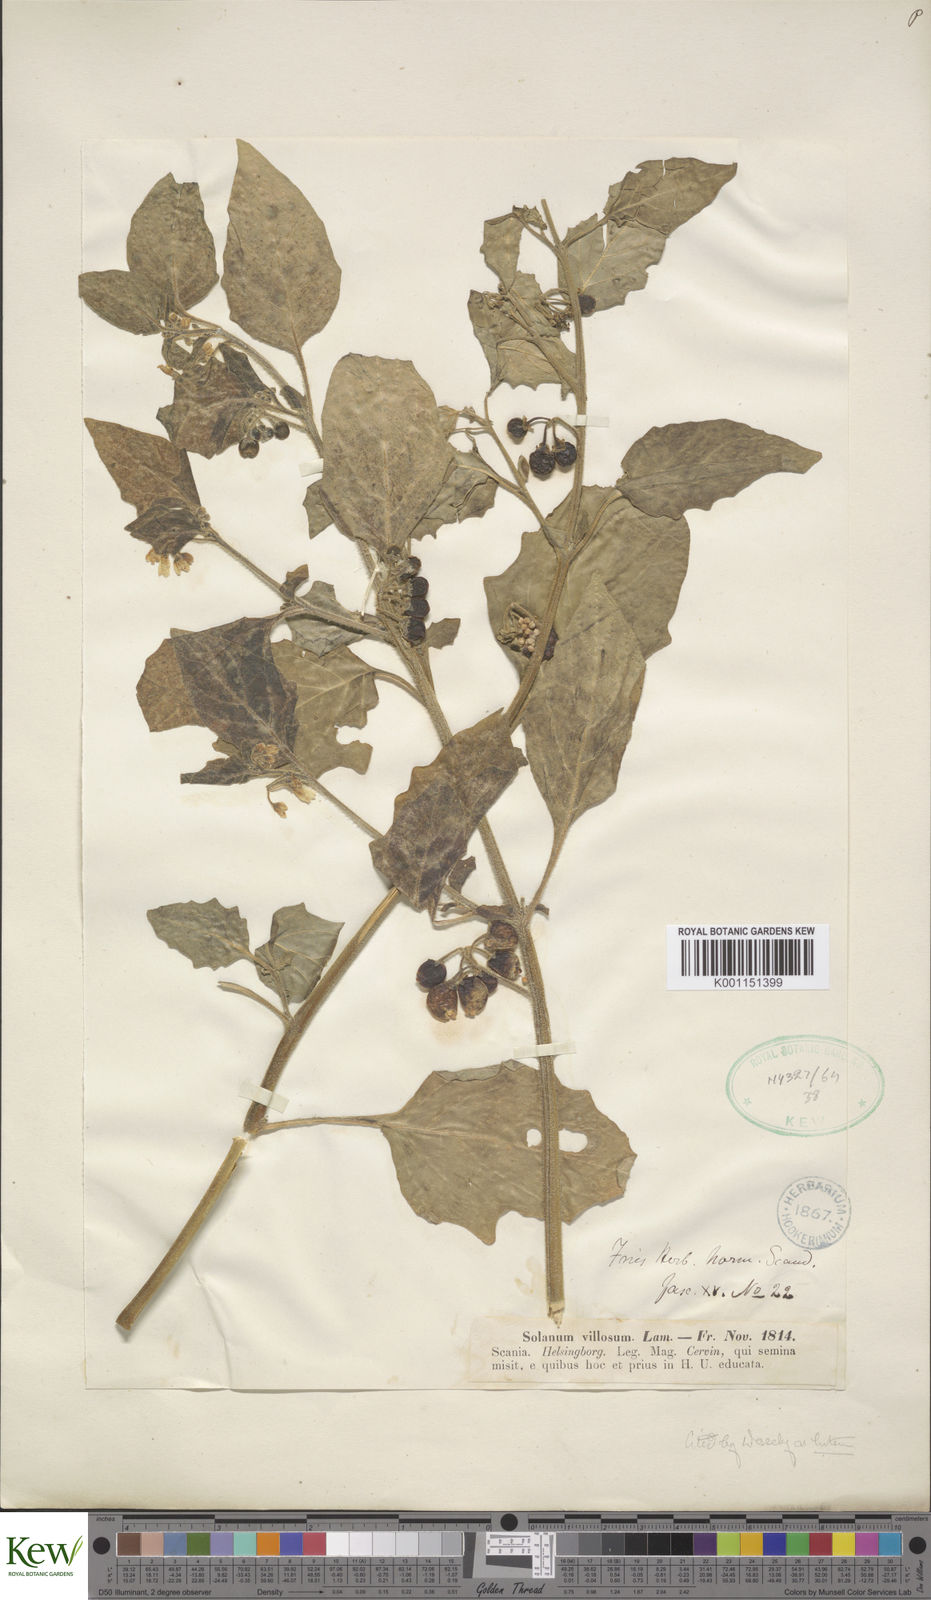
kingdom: Plantae
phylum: Tracheophyta
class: Magnoliopsida
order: Solanales
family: Solanaceae
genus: Solanum
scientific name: Solanum villosum
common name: Red nightshade
